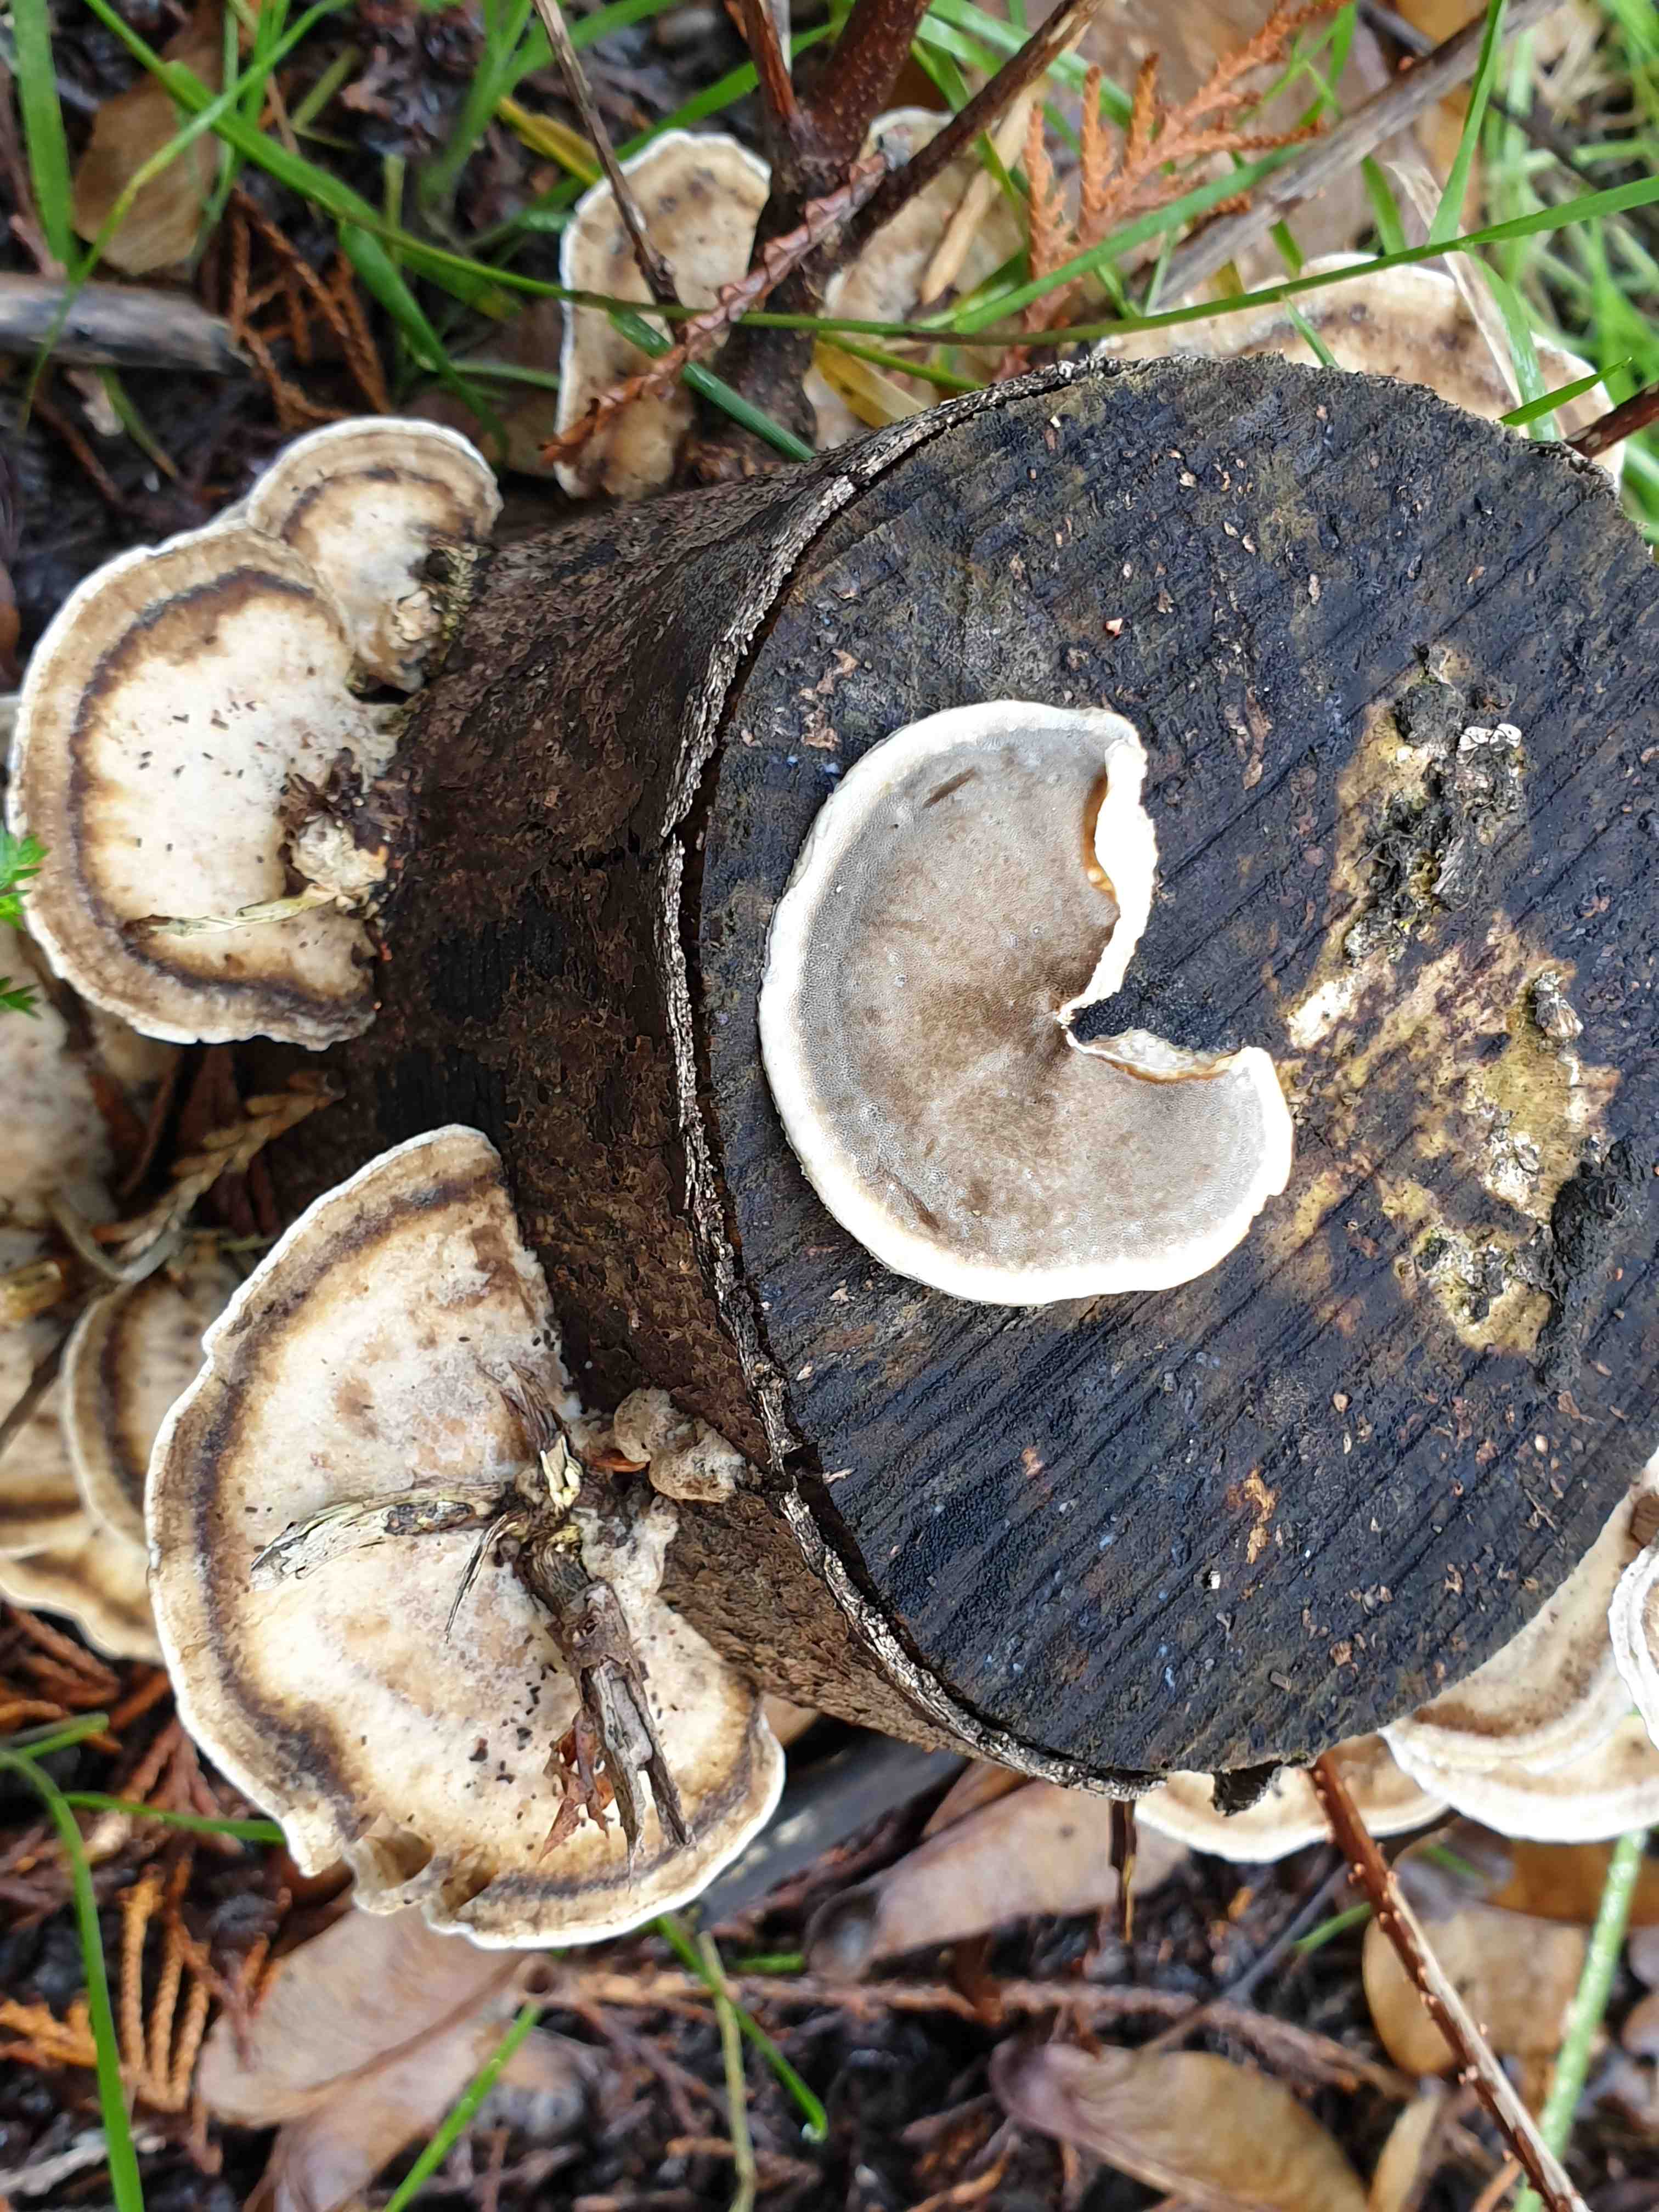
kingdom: Fungi
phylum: Basidiomycota
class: Agaricomycetes
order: Polyporales
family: Phanerochaetaceae
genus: Bjerkandera
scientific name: Bjerkandera adusta
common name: sveden sodporesvamp
